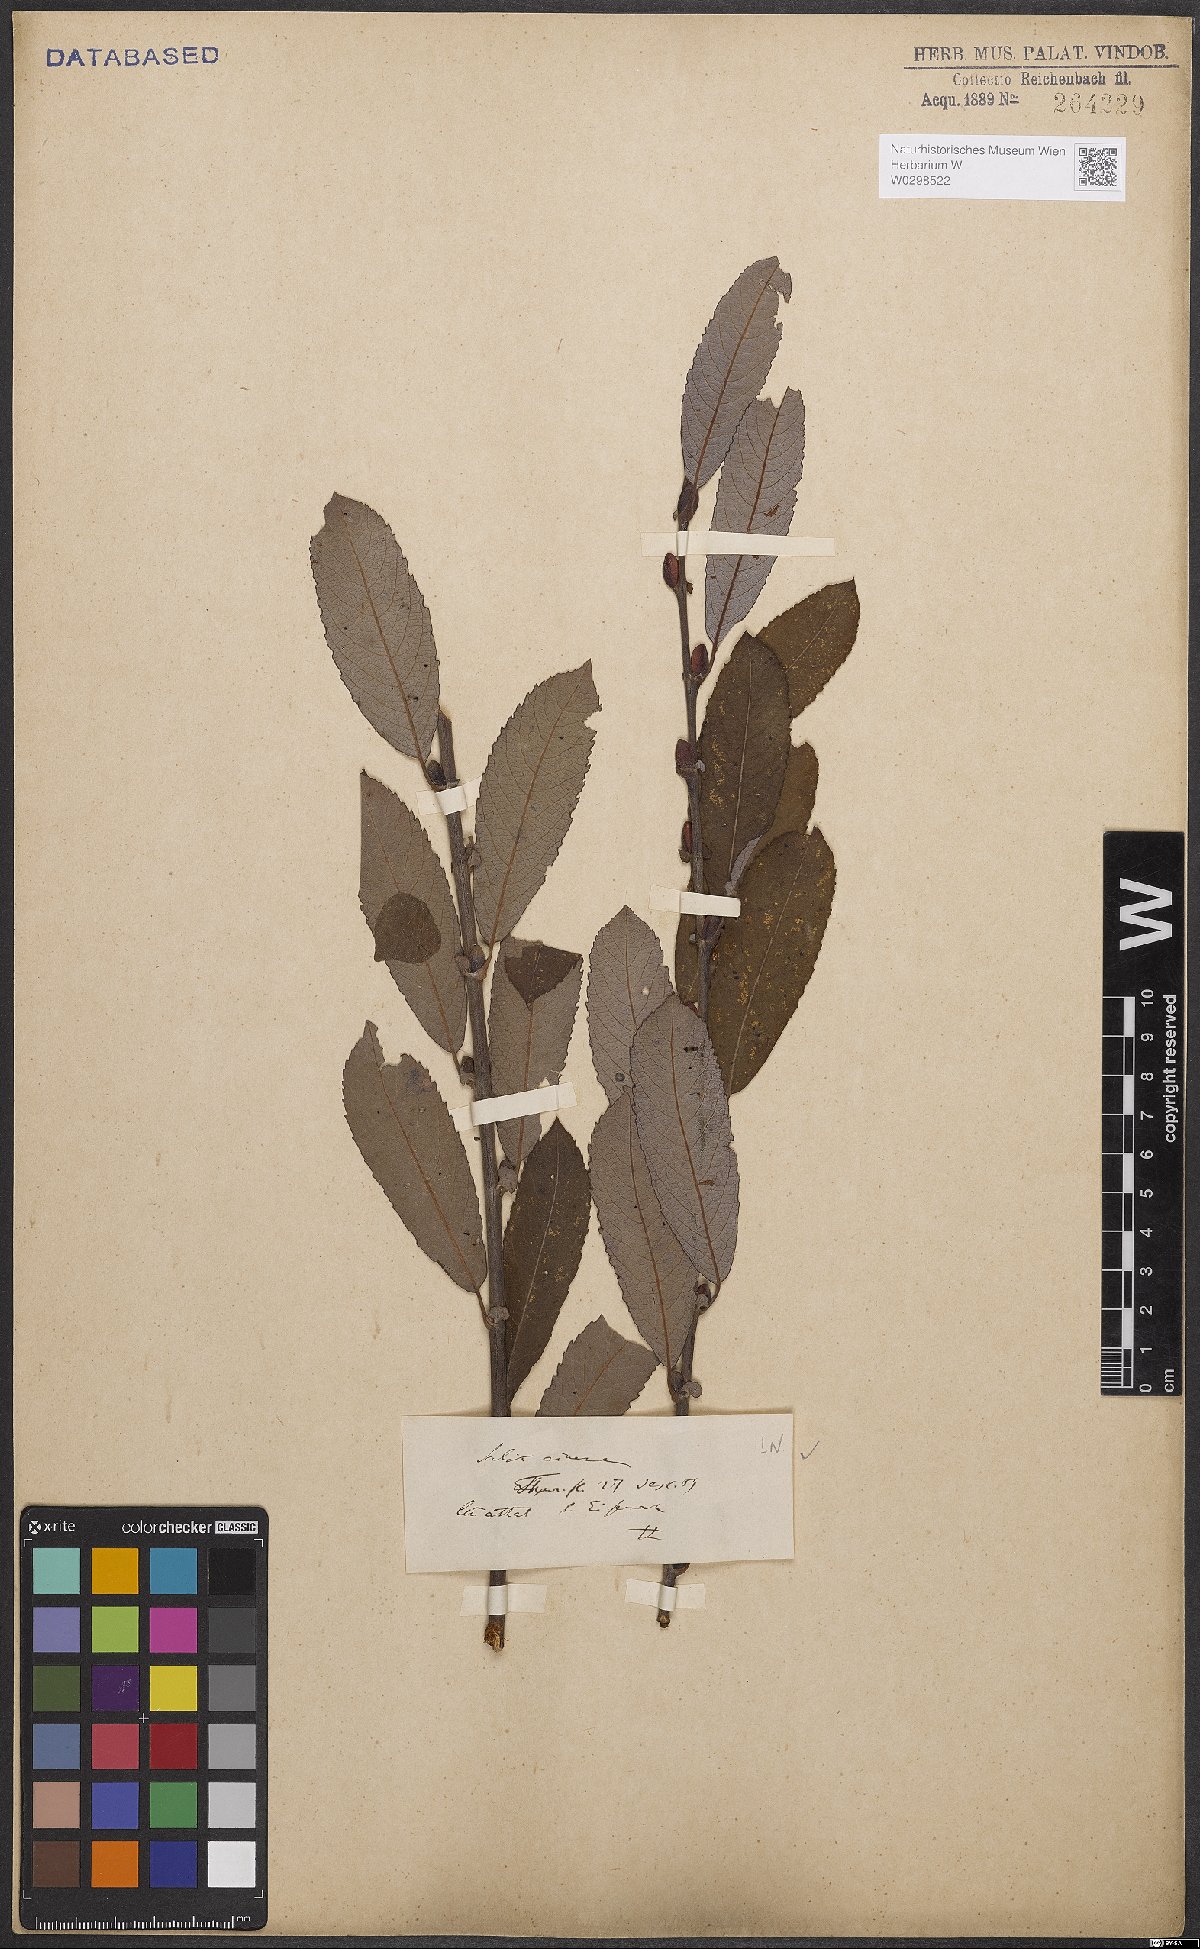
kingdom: Plantae
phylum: Tracheophyta
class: Magnoliopsida
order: Malpighiales
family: Salicaceae
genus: Salix
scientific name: Salix cinerea
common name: Common sallow
